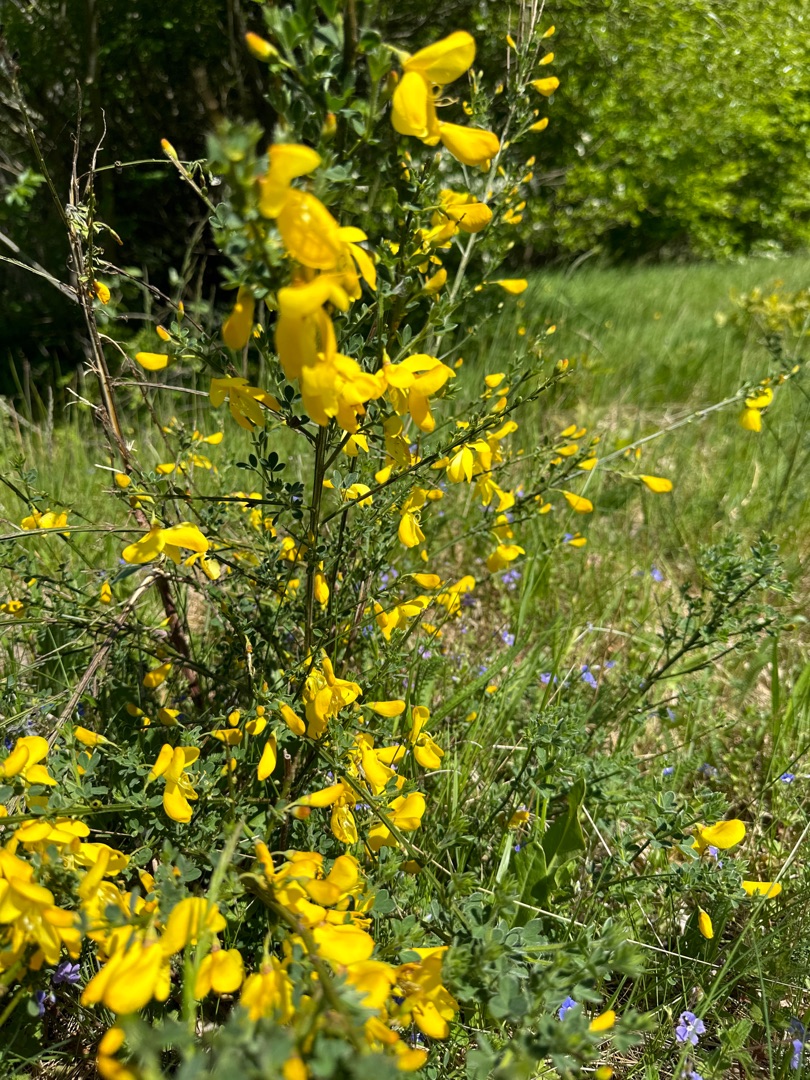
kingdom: Plantae
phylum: Tracheophyta
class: Magnoliopsida
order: Fabales
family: Fabaceae
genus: Cytisus
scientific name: Cytisus scoparius
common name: Almindelig gyvel
